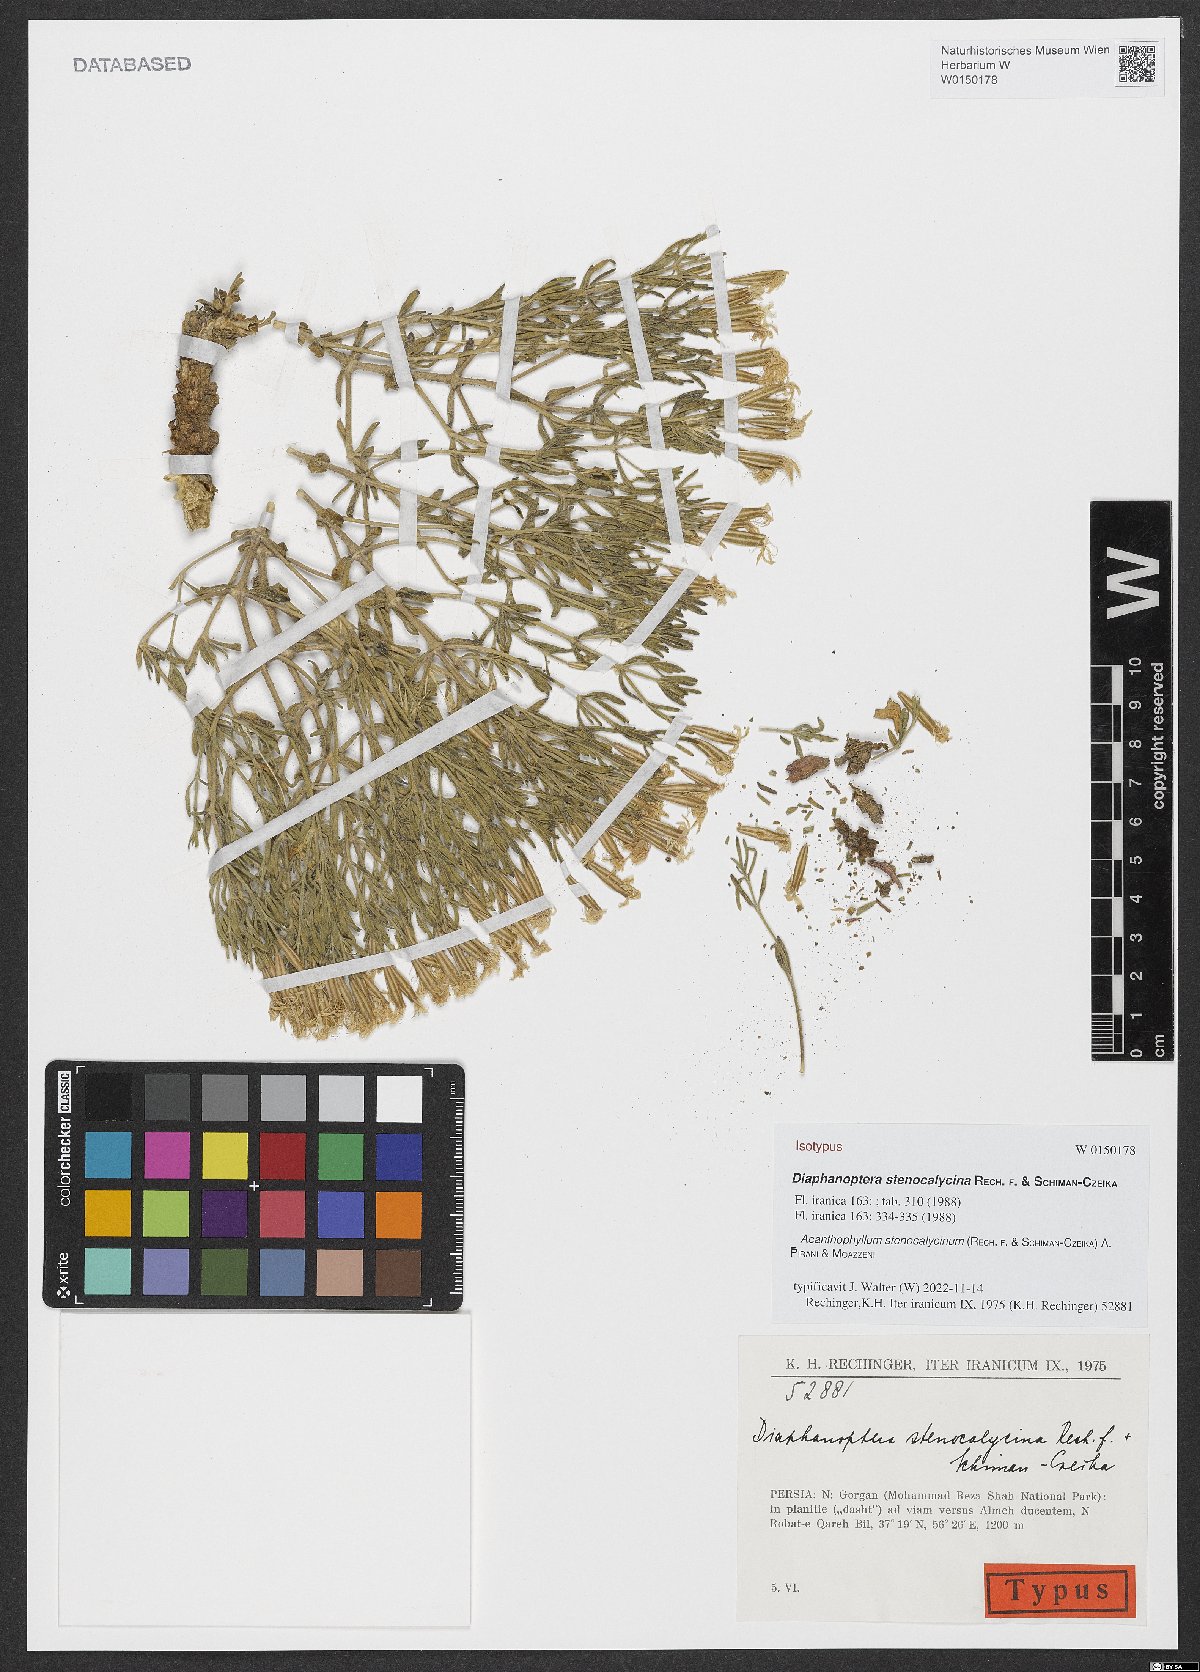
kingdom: Plantae
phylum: Tracheophyta
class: Magnoliopsida
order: Caryophyllales
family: Caryophyllaceae
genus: Acanthophyllum
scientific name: Acanthophyllum stenocalycinum
